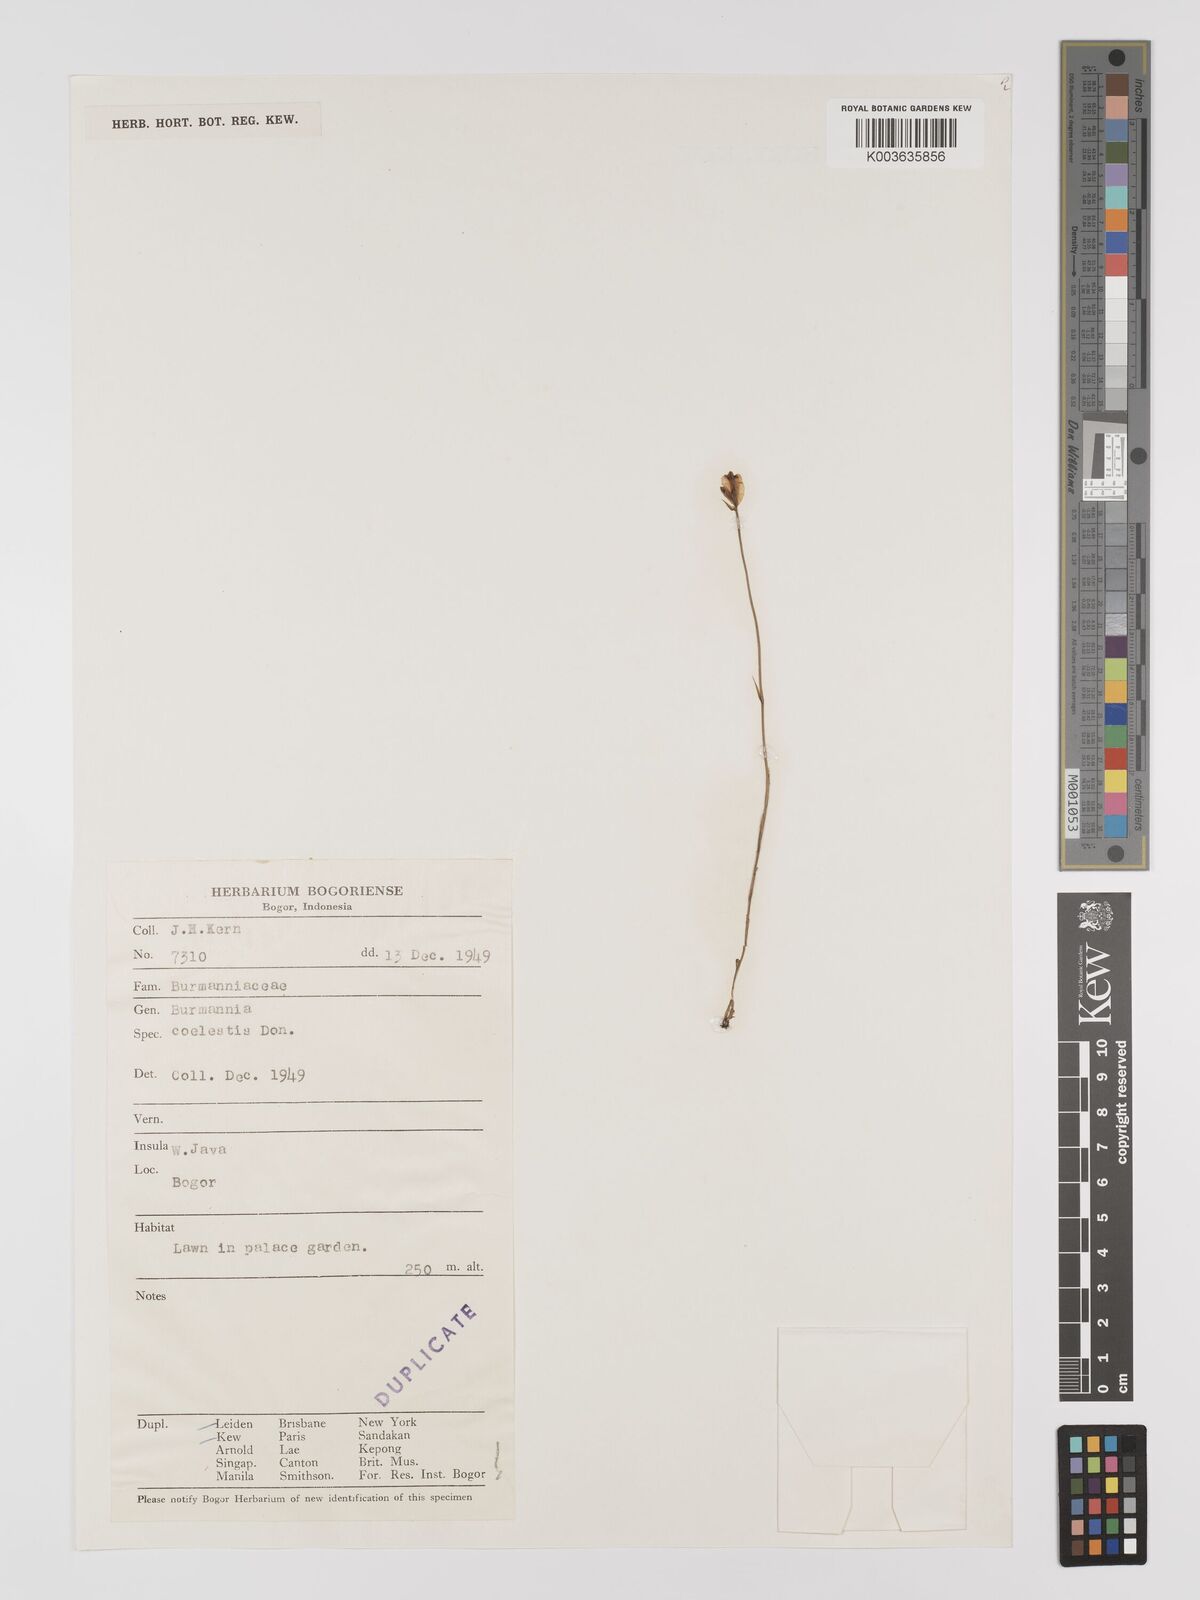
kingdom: Plantae
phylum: Tracheophyta
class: Liliopsida
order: Dioscoreales
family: Burmanniaceae
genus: Burmannia
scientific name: Burmannia coelestis
